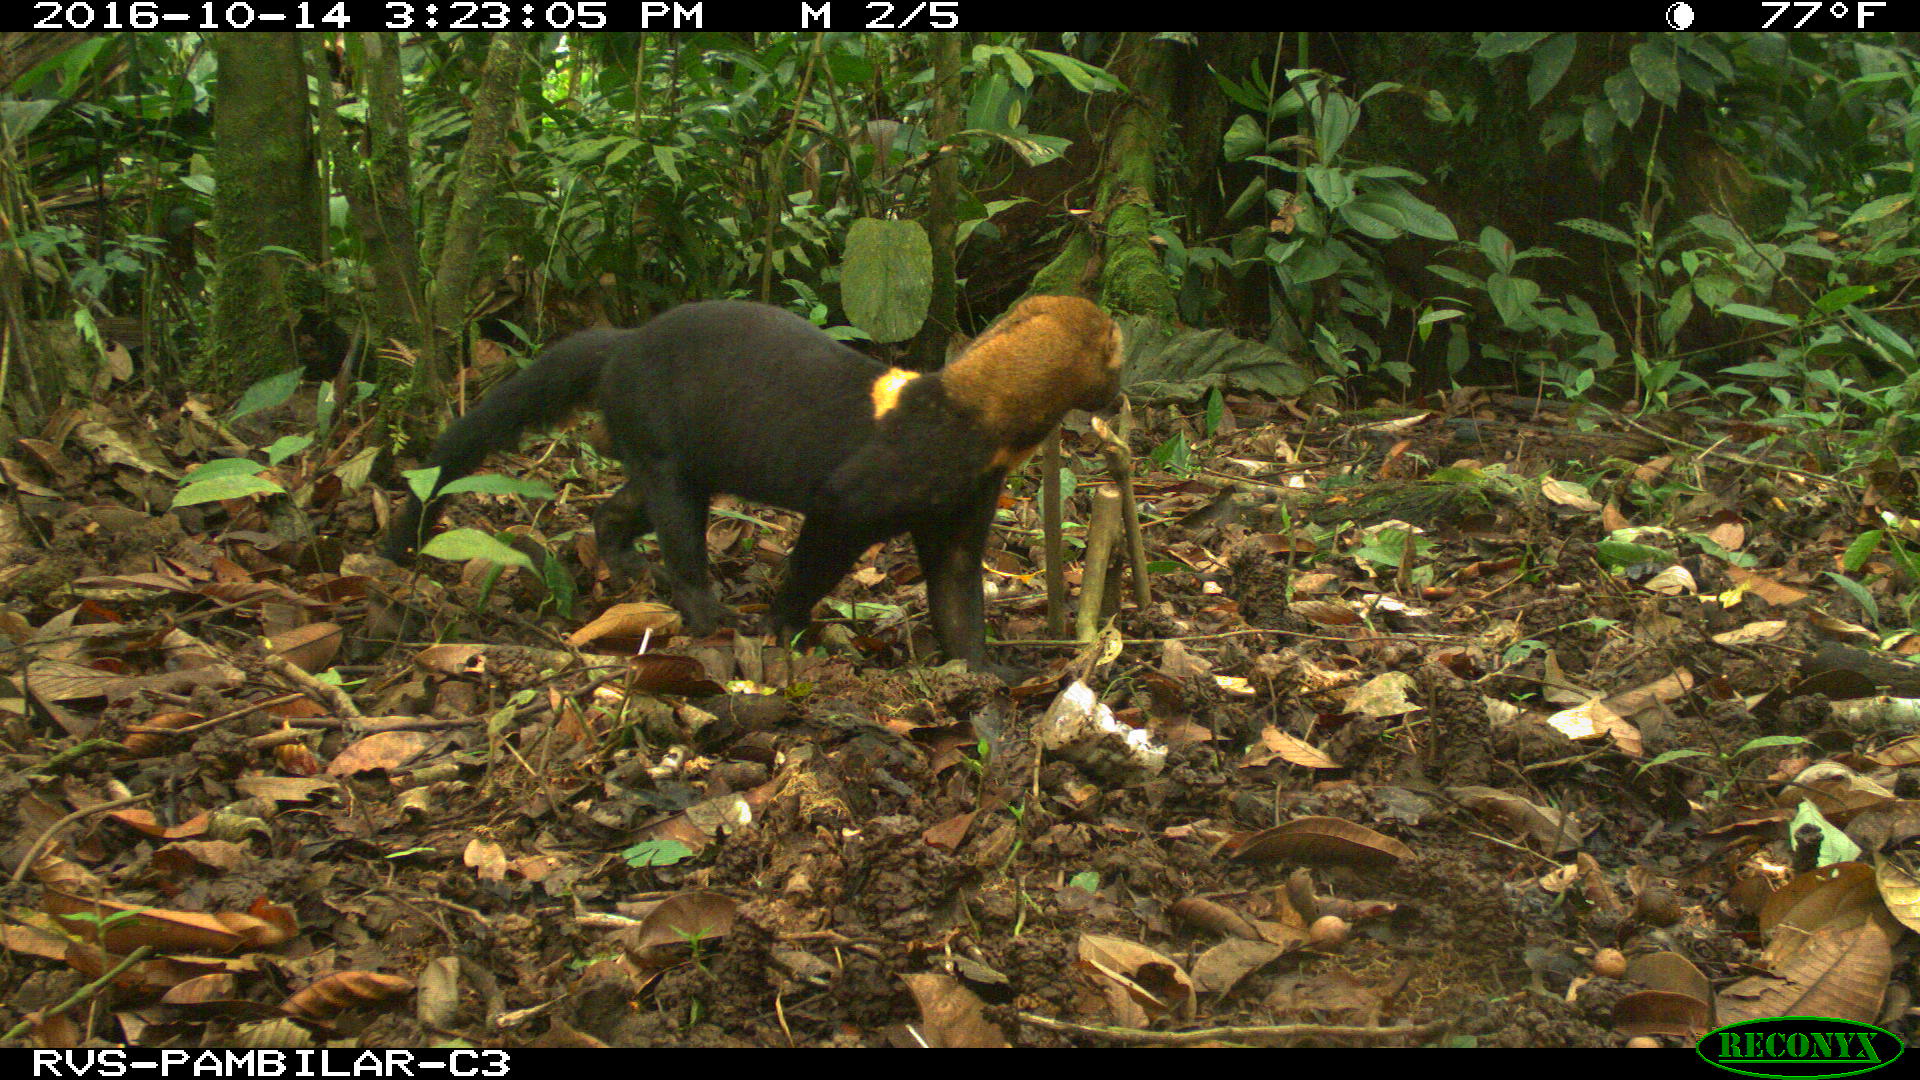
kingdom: Animalia
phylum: Chordata
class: Mammalia
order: Carnivora
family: Mustelidae
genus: Eira
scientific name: Eira barbara
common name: Tayra
